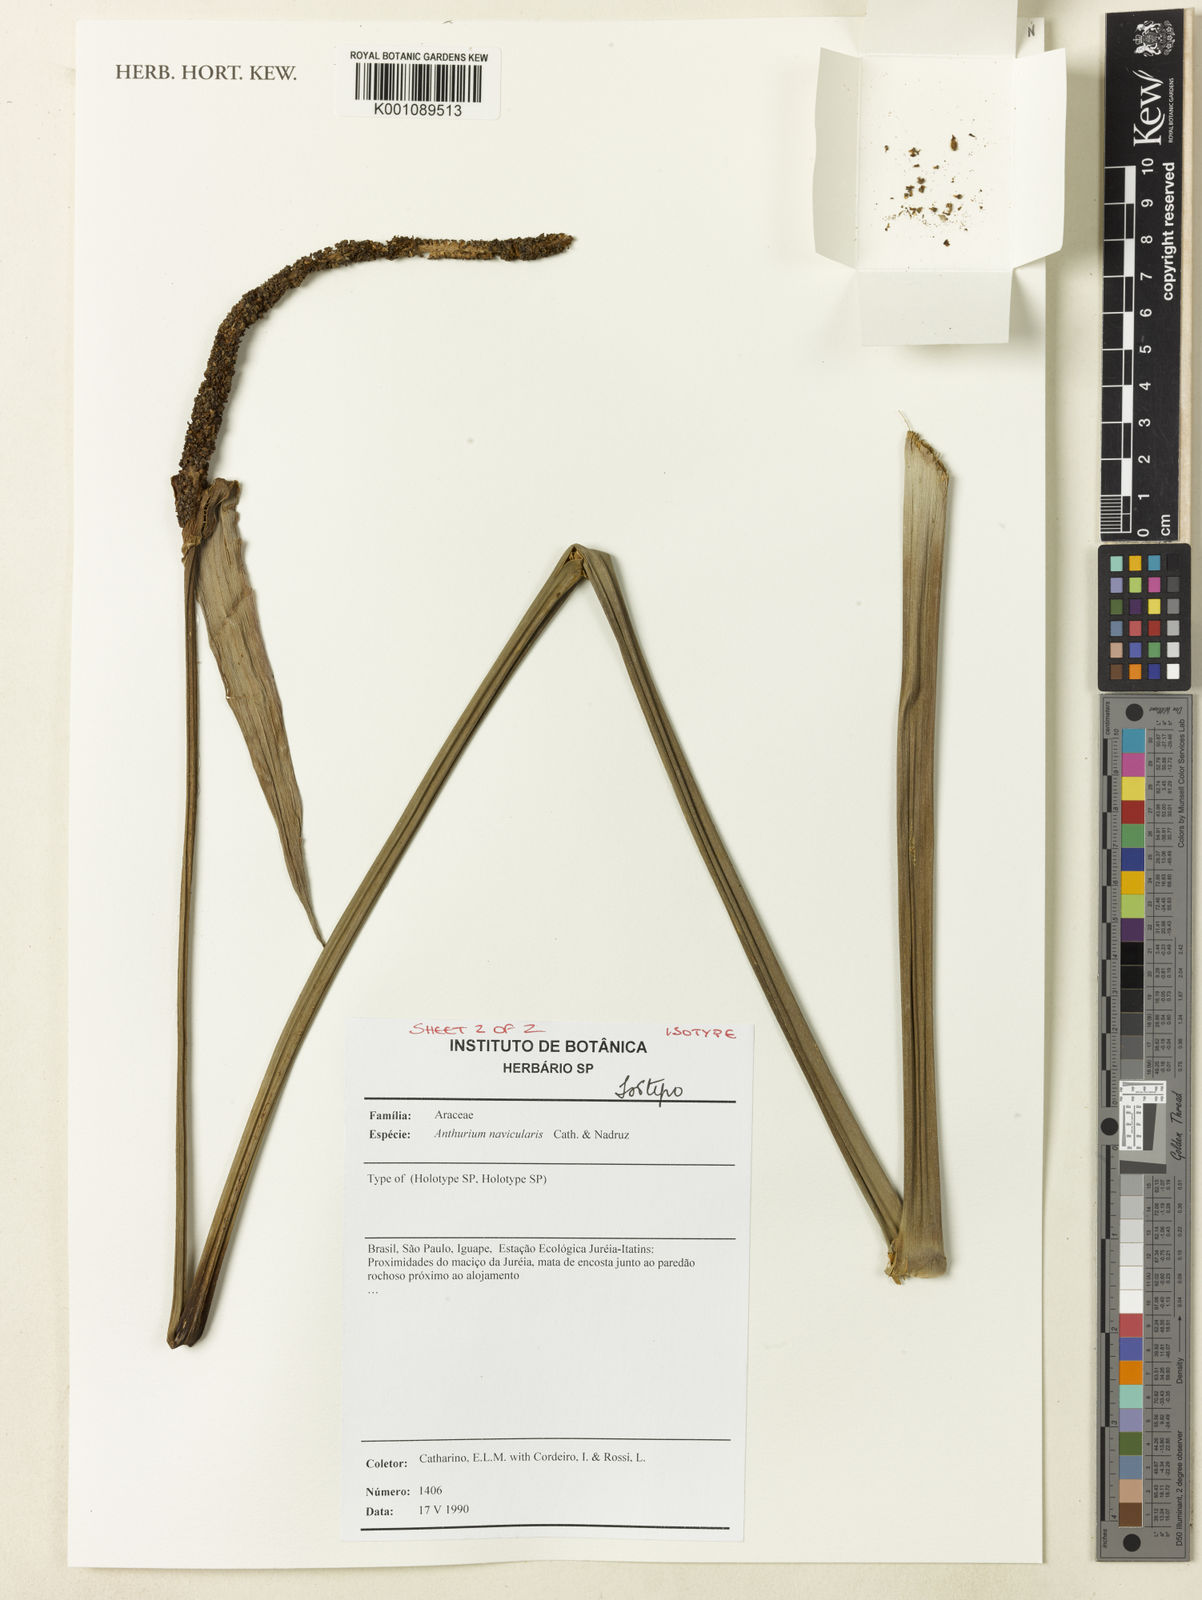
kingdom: Plantae
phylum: Tracheophyta
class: Liliopsida
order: Alismatales
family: Araceae
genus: Anthurium
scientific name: Anthurium naviculare
